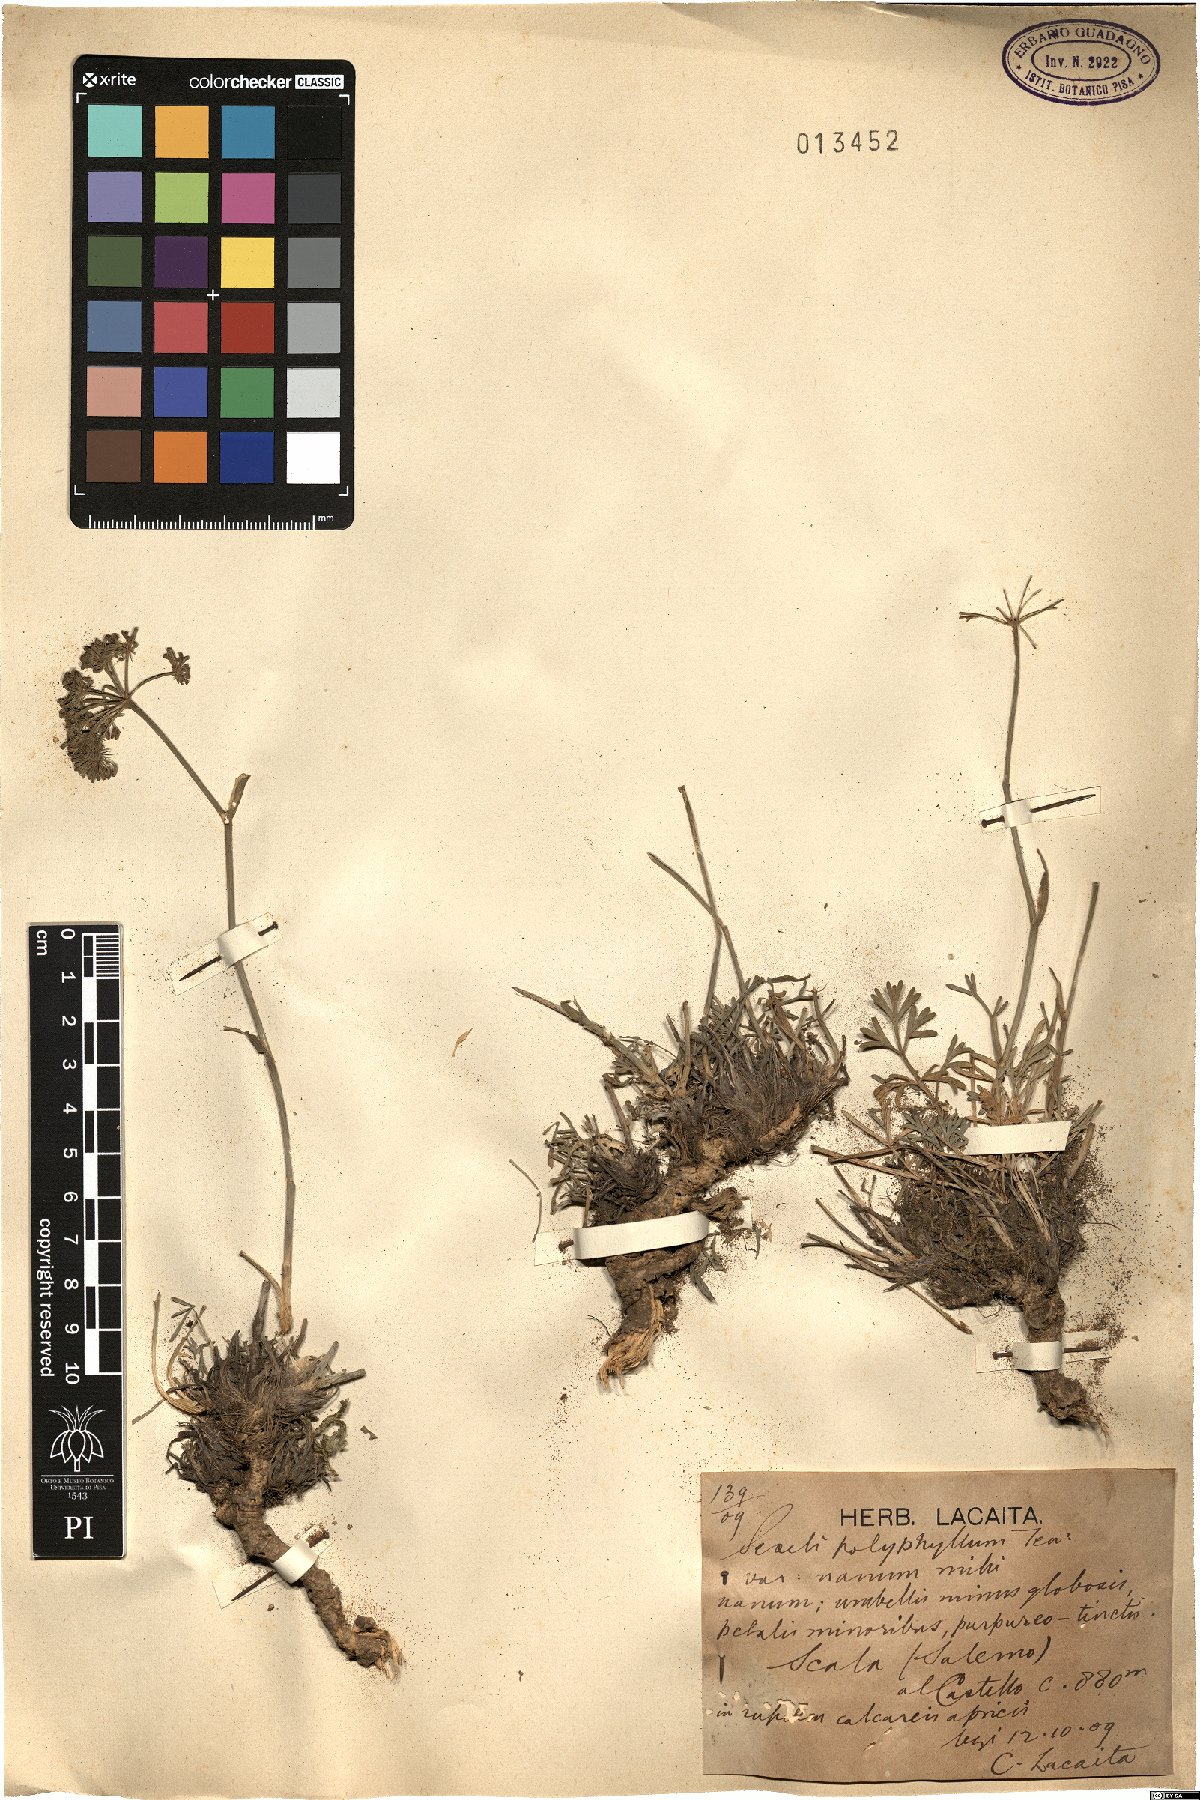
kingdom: Plantae
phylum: Tracheophyta
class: Magnoliopsida
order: Apiales
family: Apiaceae
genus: Seseli
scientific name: Seseli polyphyllum
